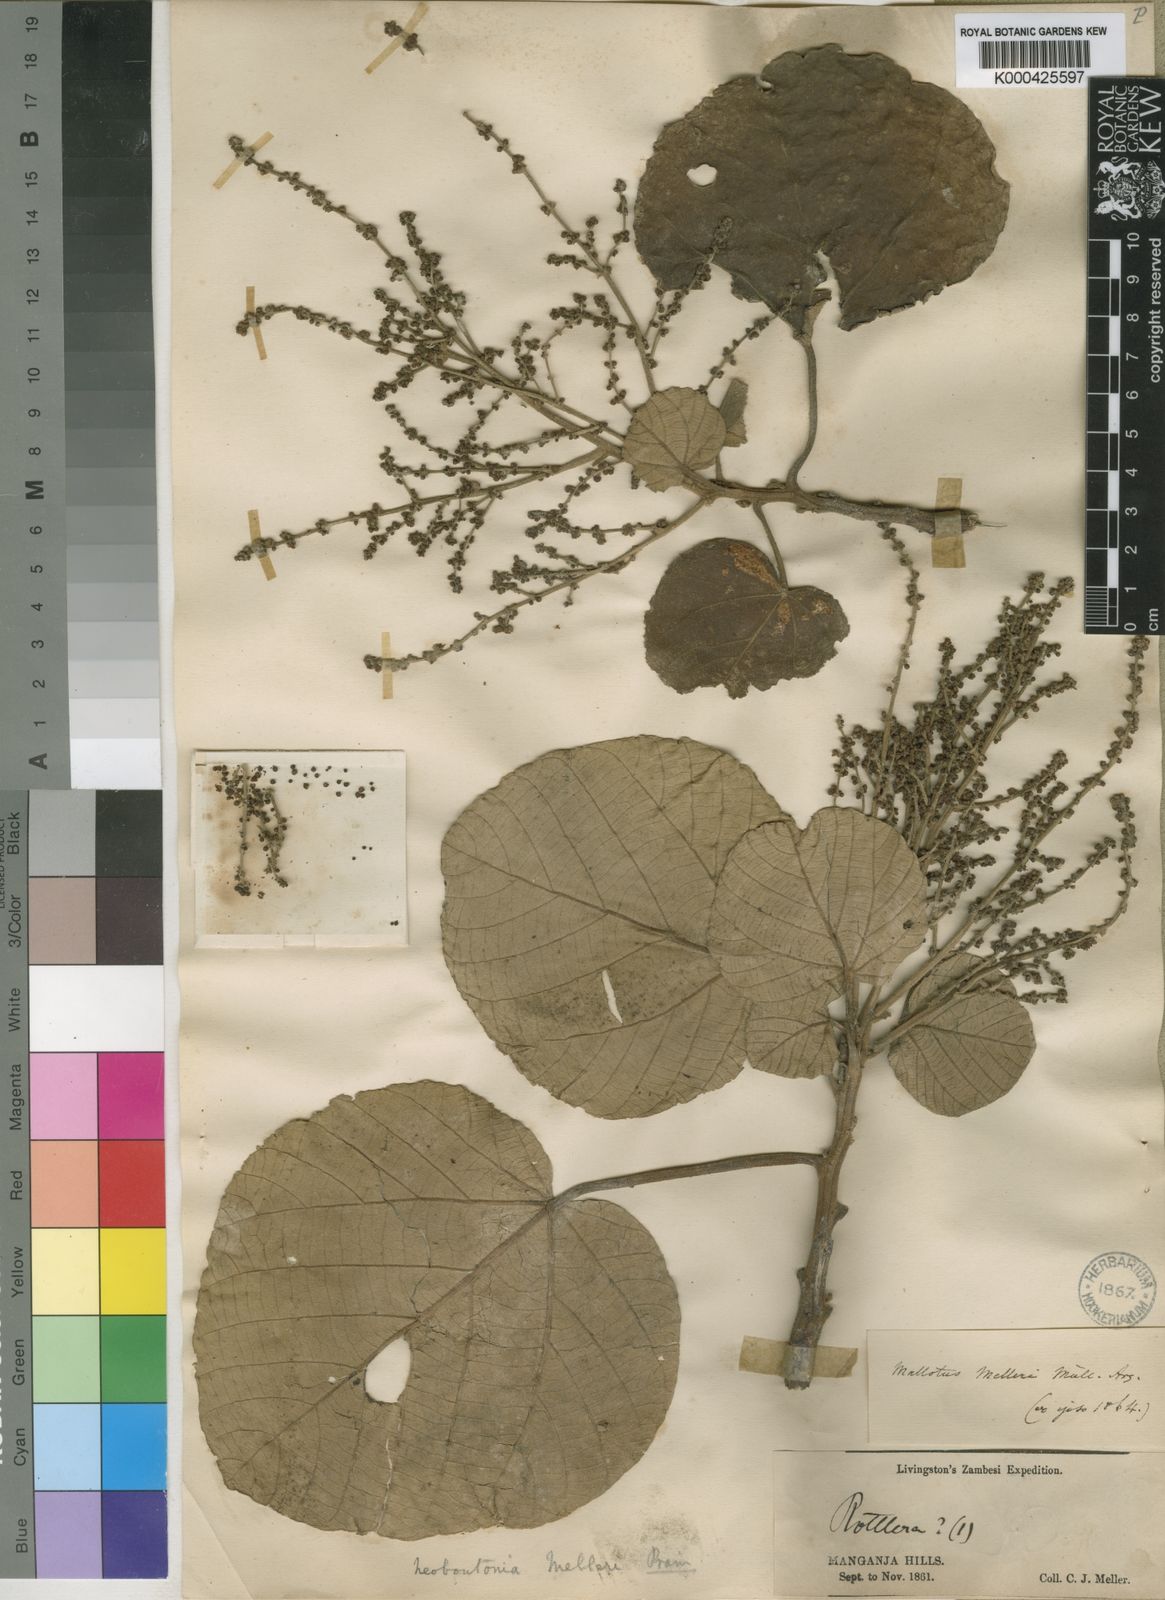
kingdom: Plantae
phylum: Tracheophyta
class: Magnoliopsida
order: Malpighiales
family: Euphorbiaceae
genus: Neoboutonia
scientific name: Neoboutonia
